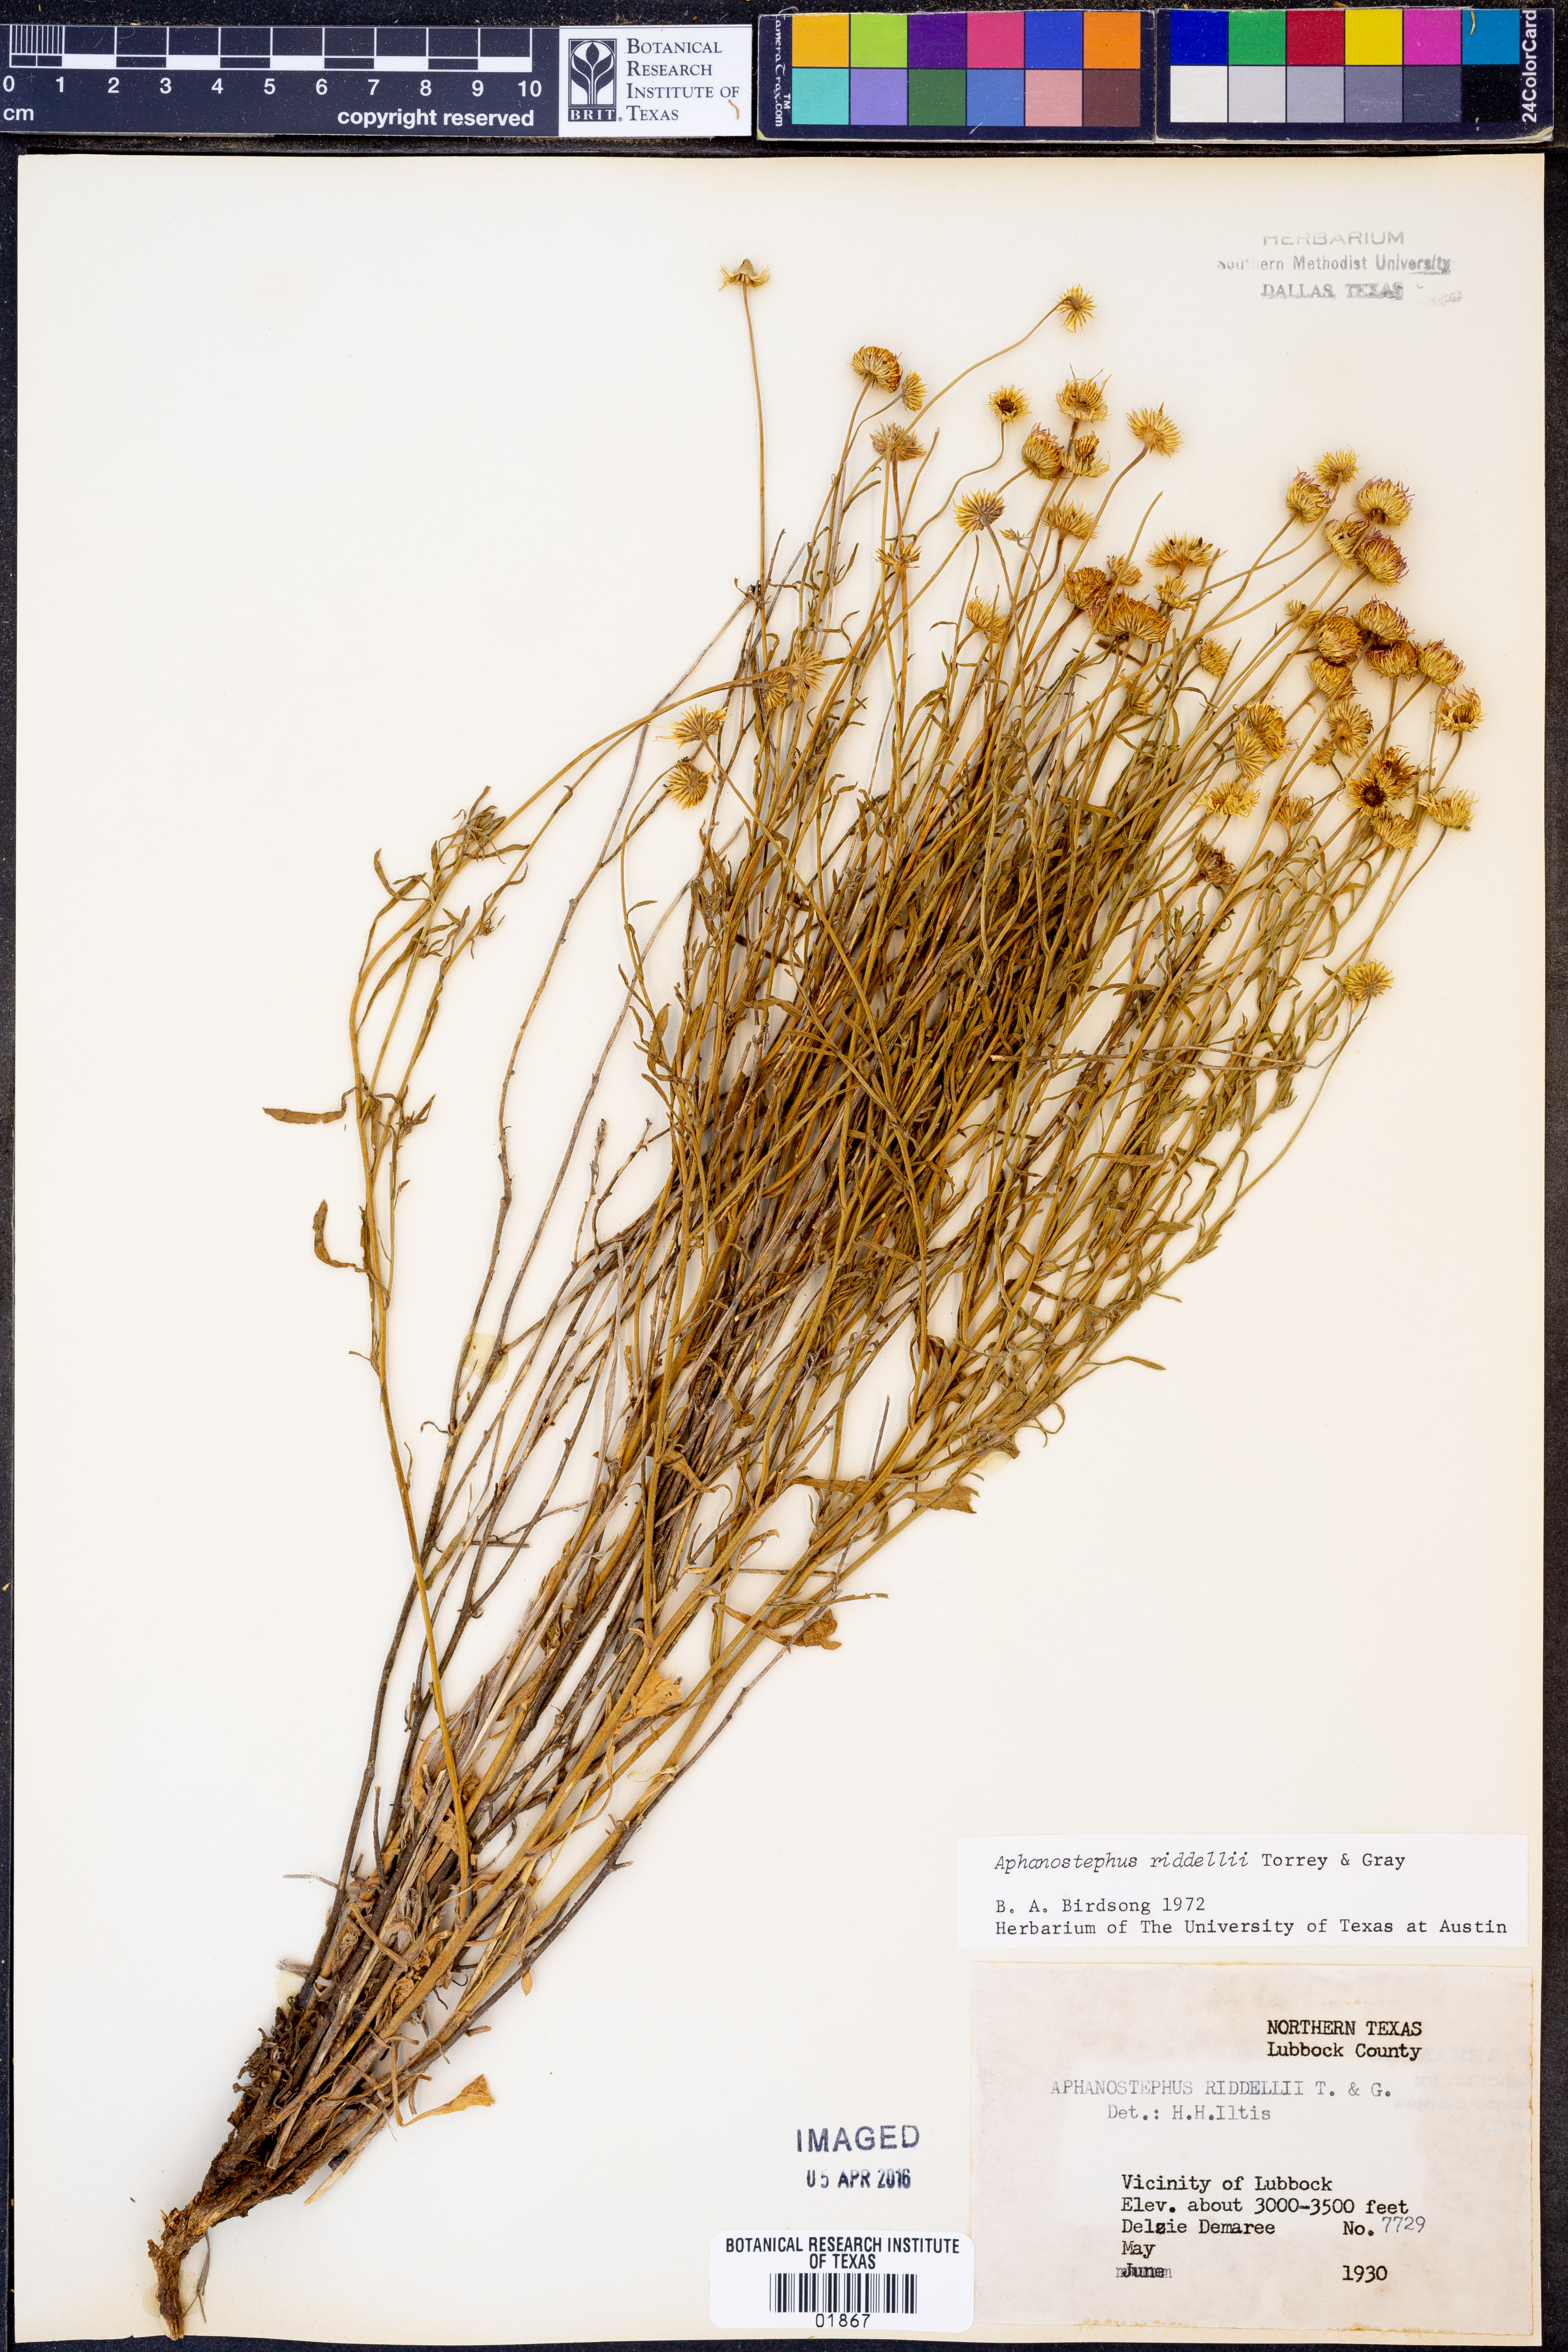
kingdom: Plantae
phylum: Tracheophyta
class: Magnoliopsida
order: Asterales
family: Asteraceae
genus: Aphanostephus
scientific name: Aphanostephus riddellii
